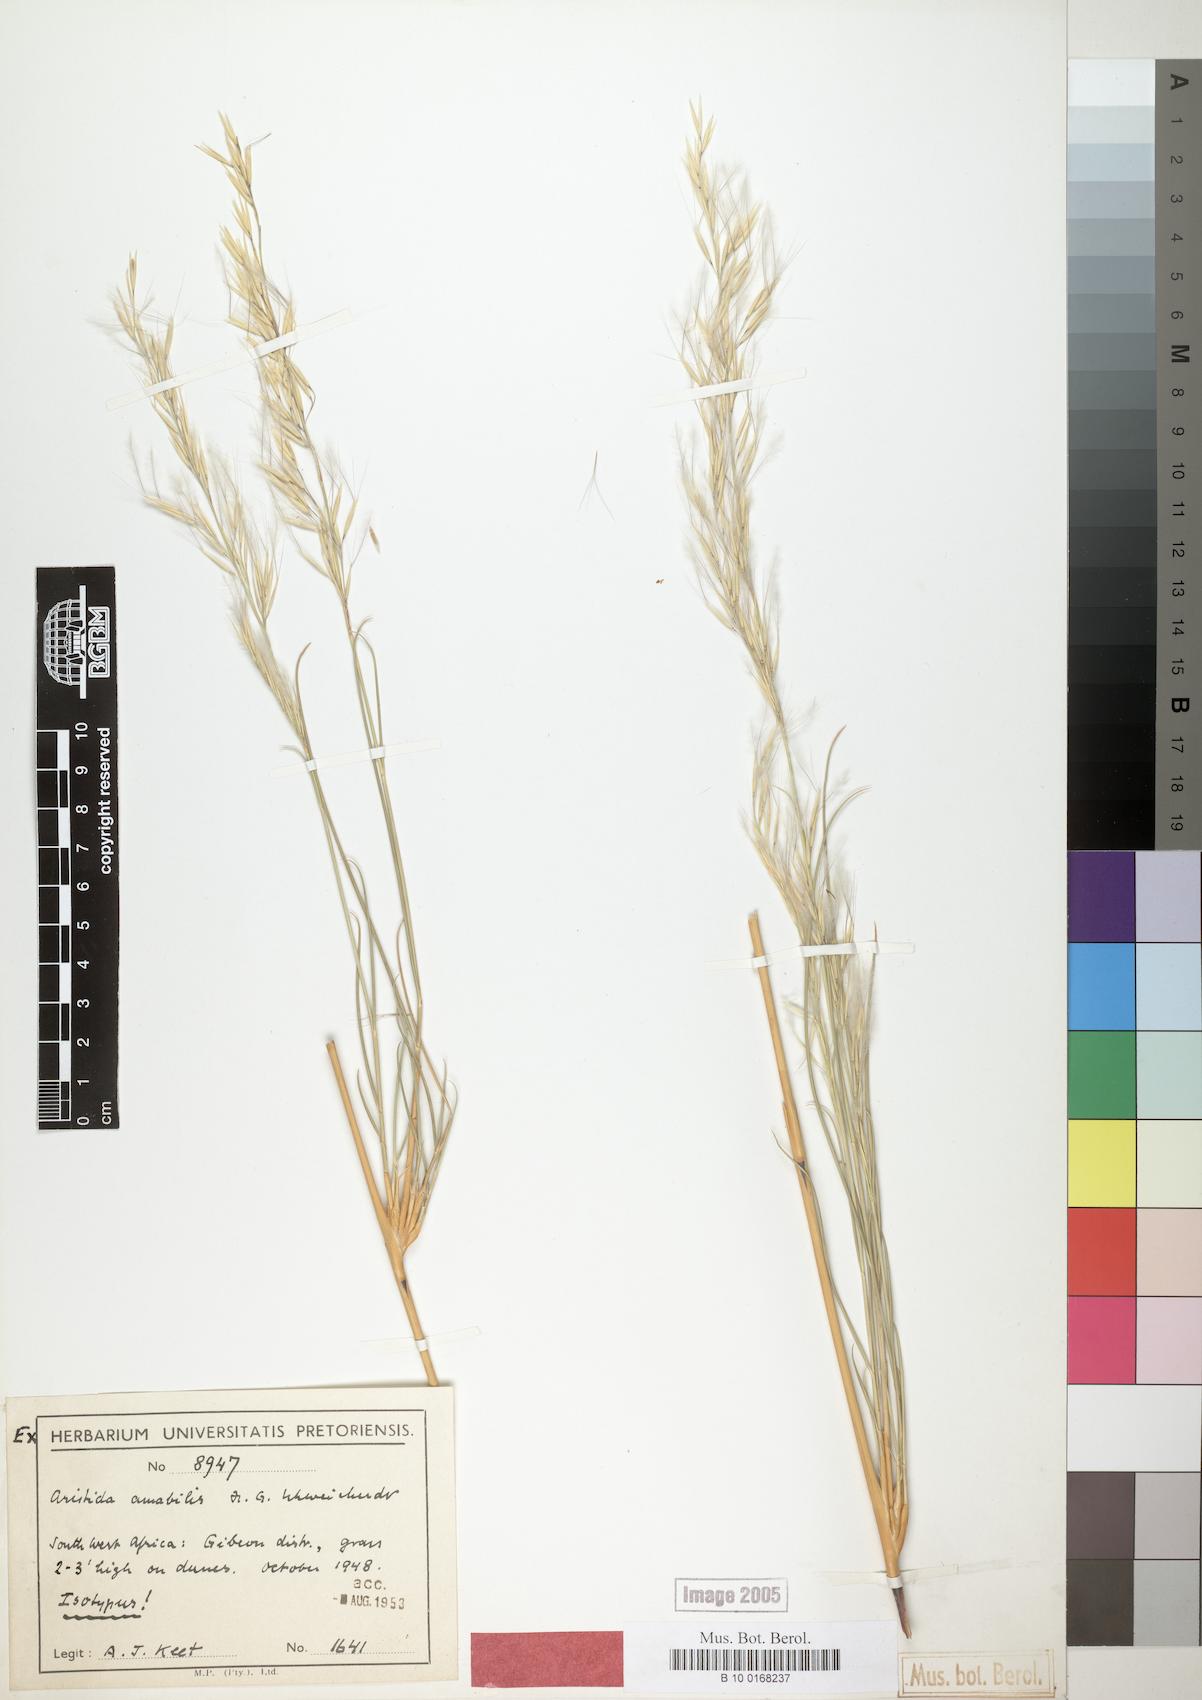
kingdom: Plantae
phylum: Tracheophyta
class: Liliopsida
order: Poales
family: Poaceae
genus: Stipagrostis
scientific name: Stipagrostis amabilis
